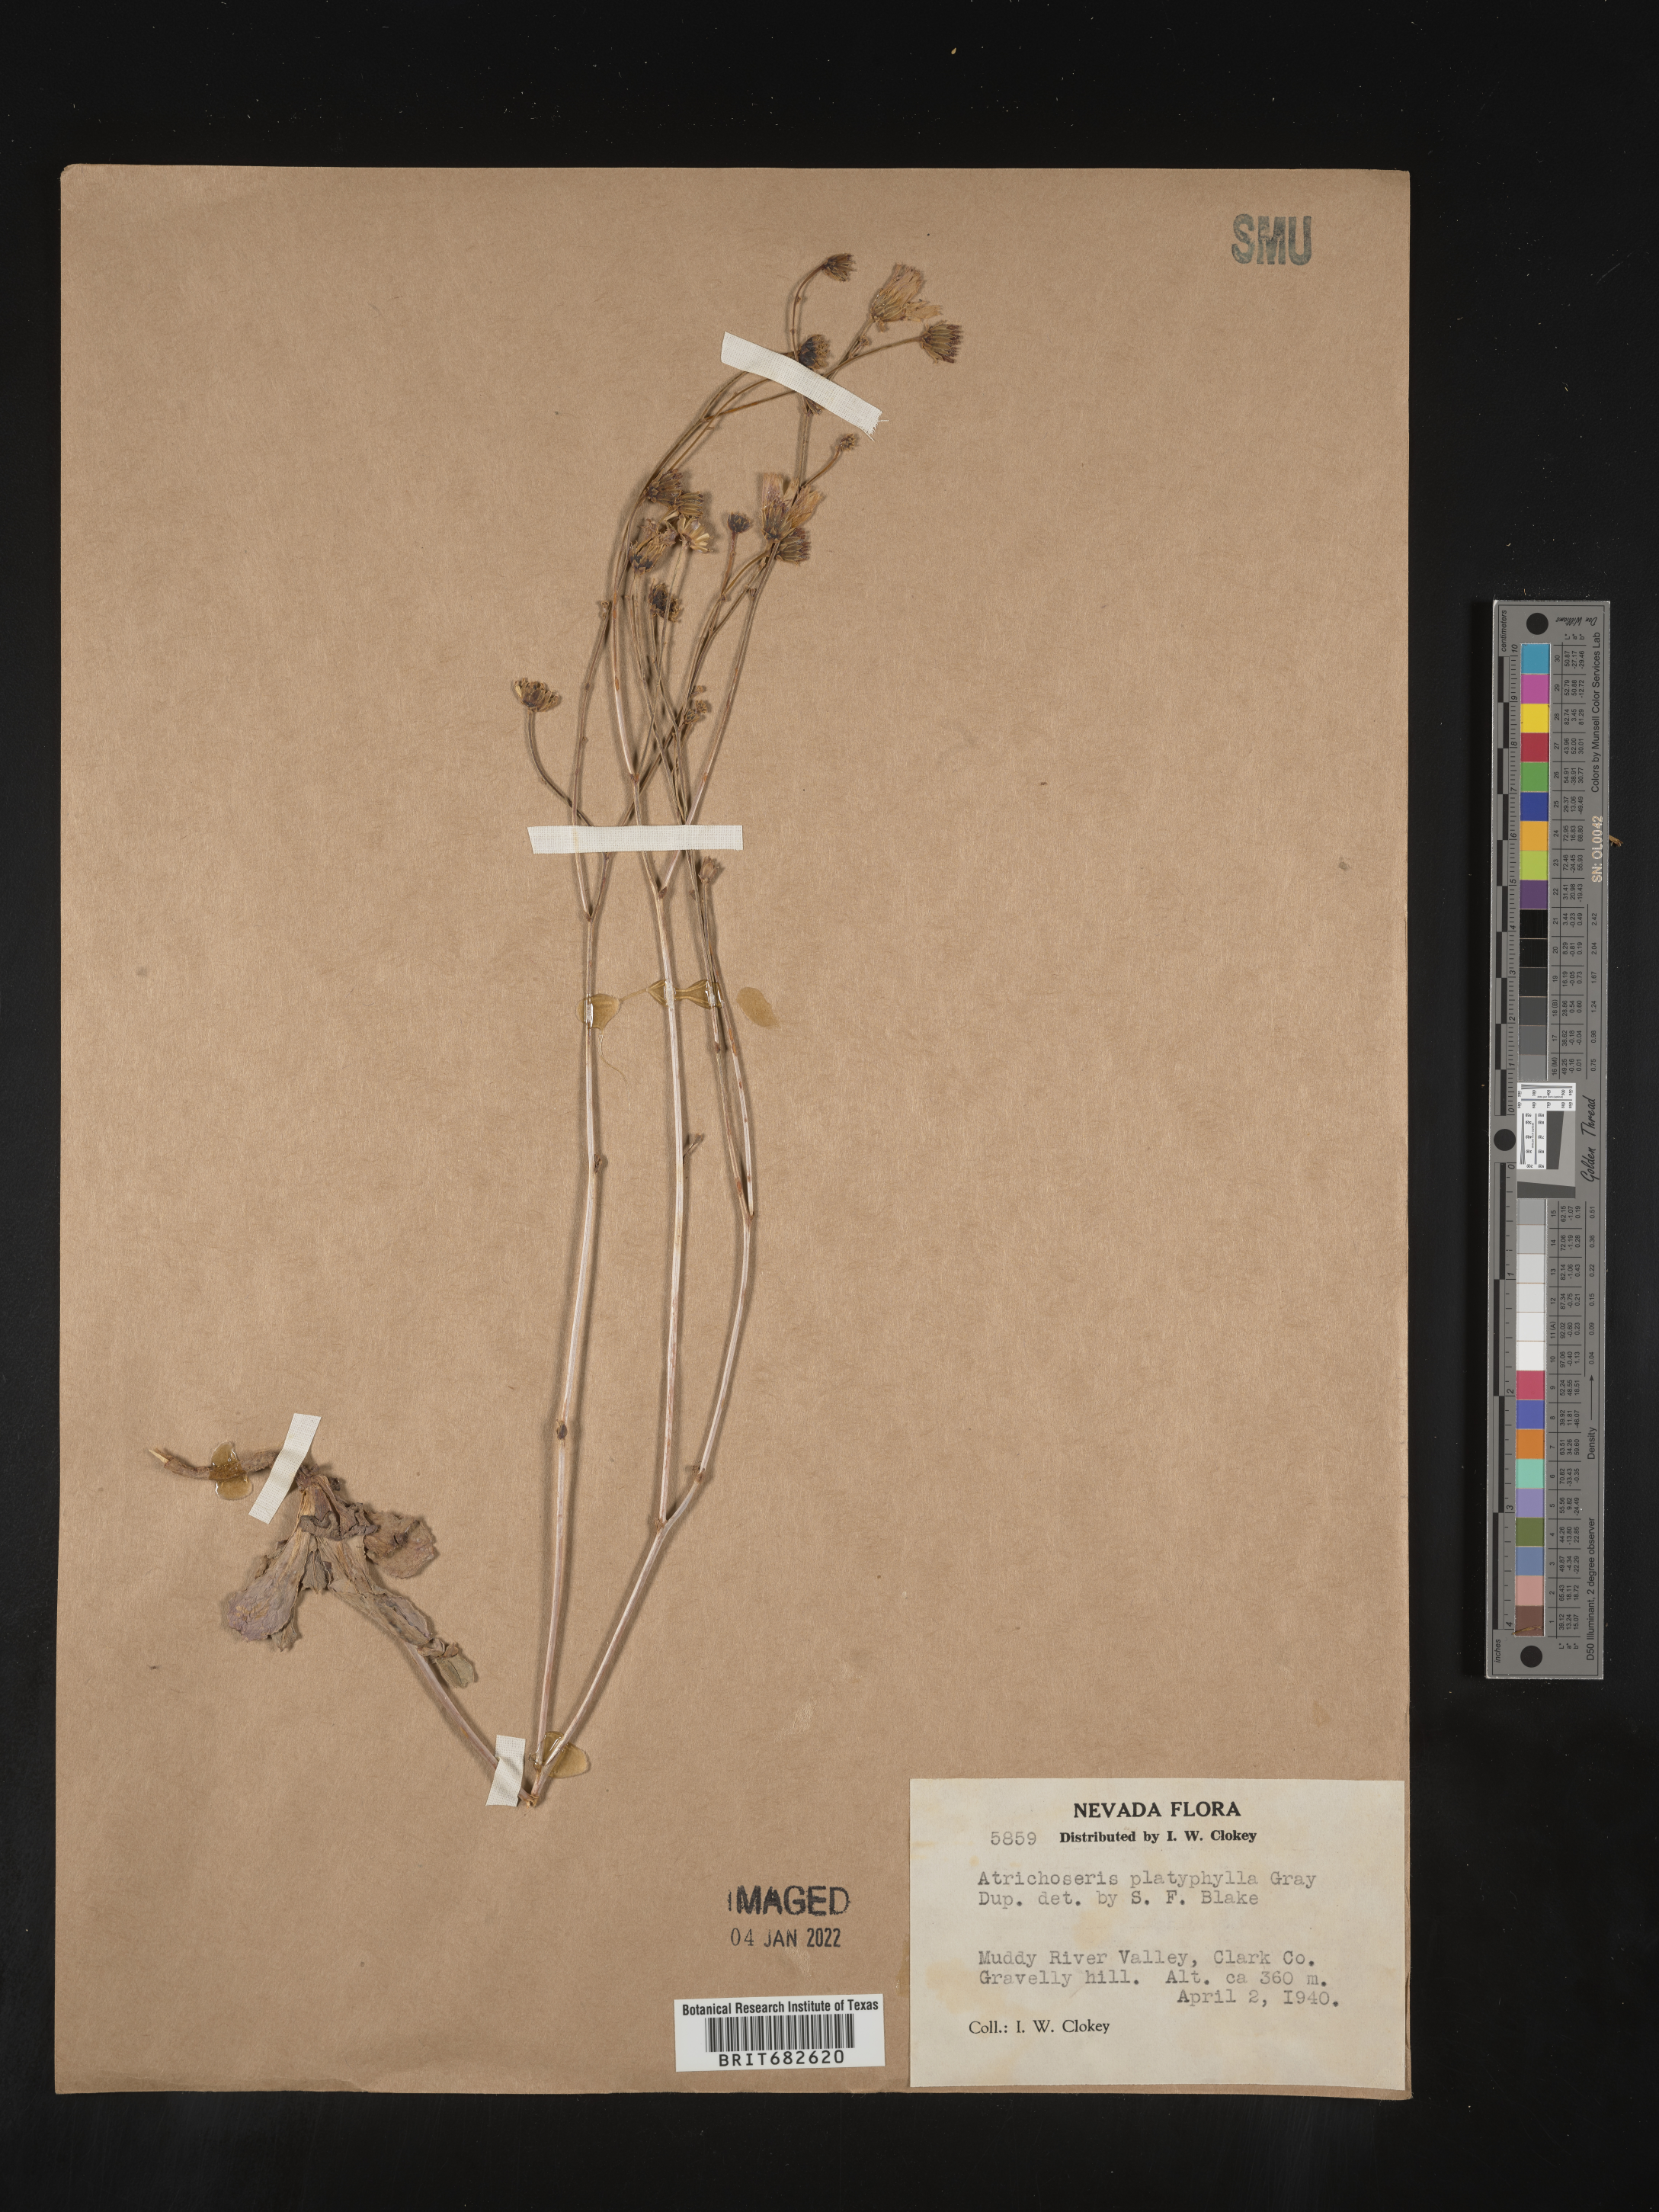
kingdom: Plantae
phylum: Tracheophyta
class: Magnoliopsida
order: Asterales
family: Asteraceae
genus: Atrichoseris
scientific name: Atrichoseris
